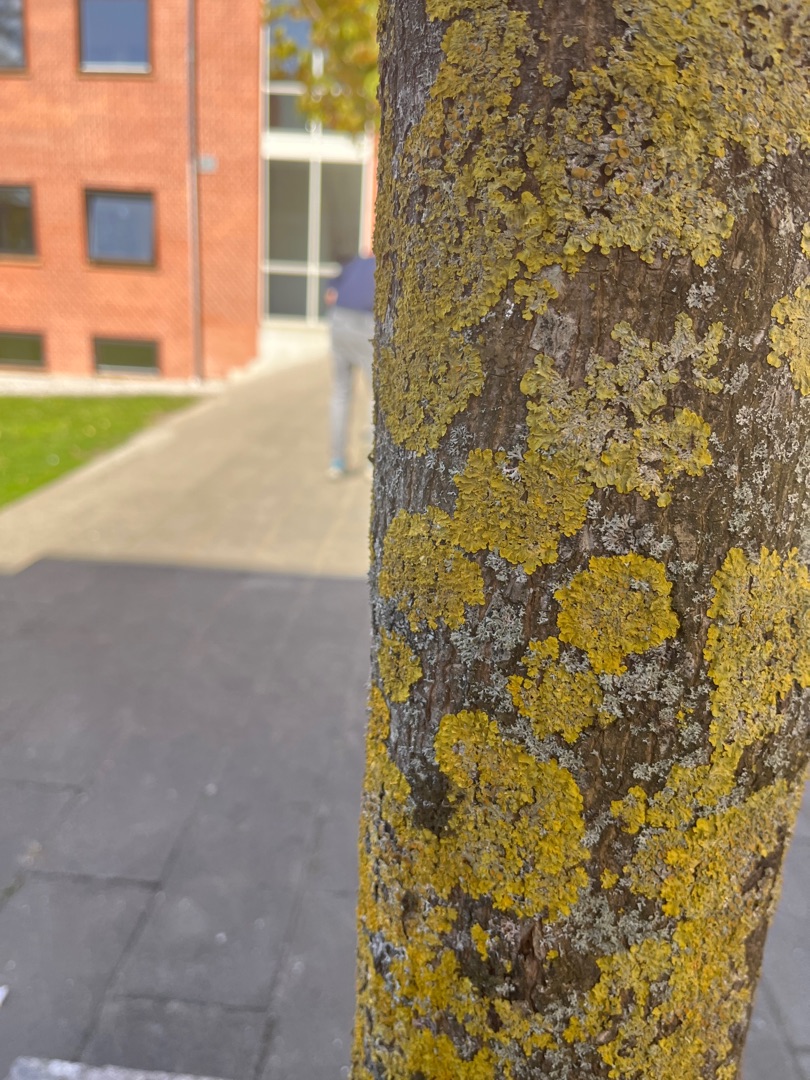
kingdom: Fungi
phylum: Ascomycota
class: Lecanoromycetes
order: Teloschistales
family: Teloschistaceae
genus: Xanthoria
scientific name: Xanthoria parietina
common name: Almindelig væggelav
